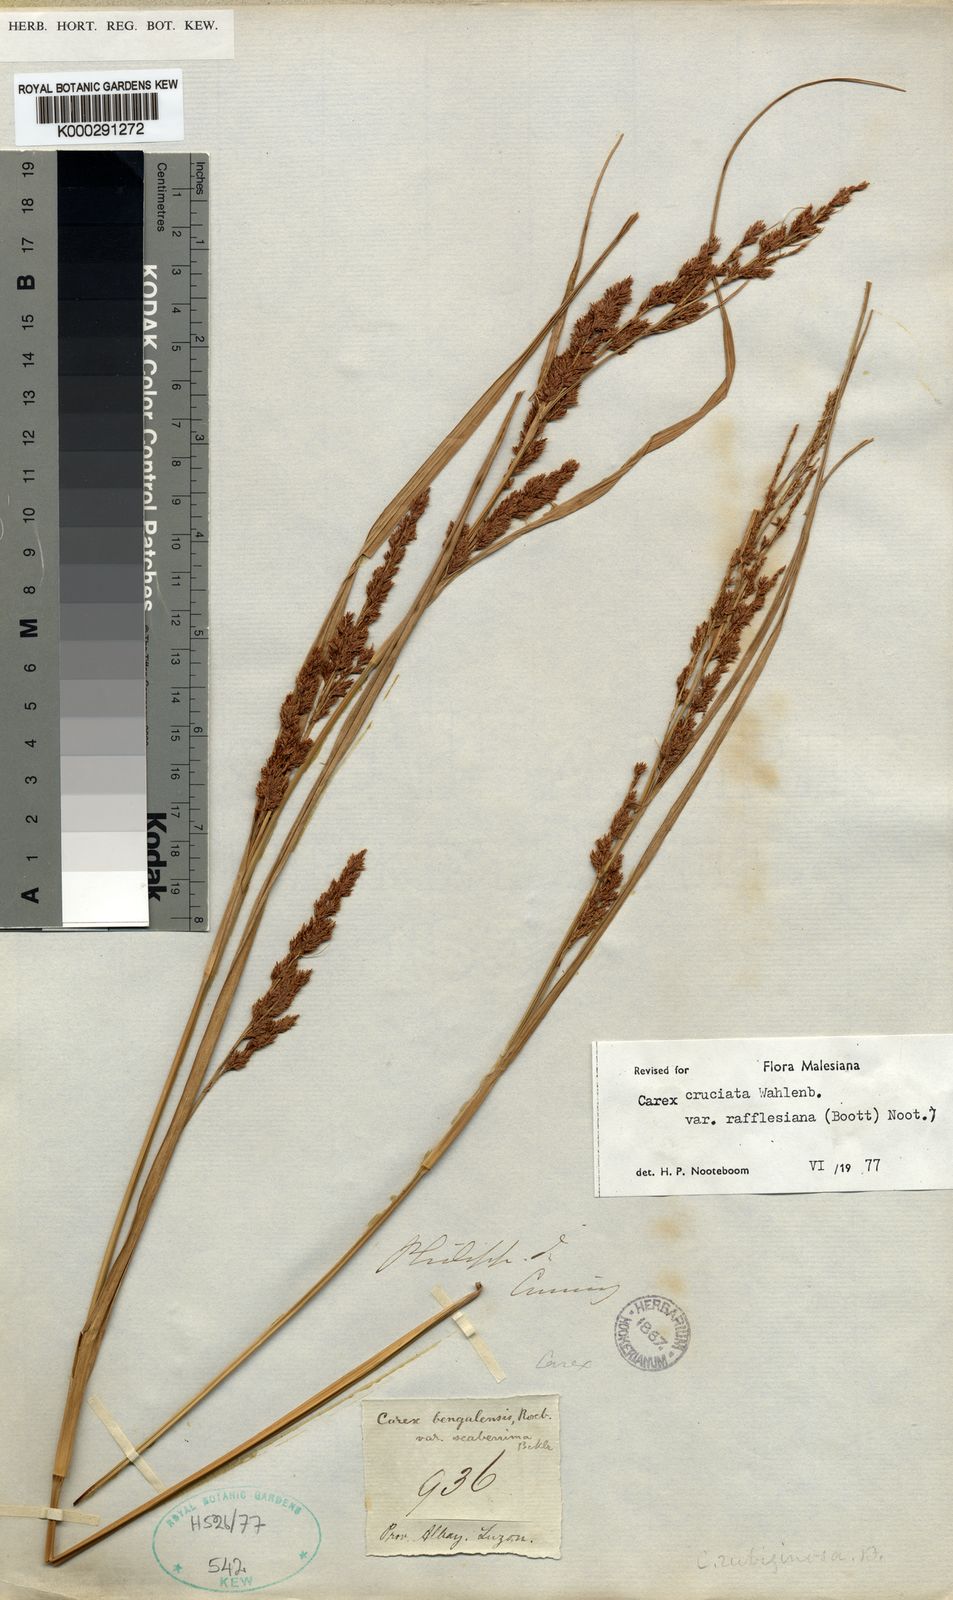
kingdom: Plantae
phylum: Tracheophyta
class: Liliopsida
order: Poales
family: Cyperaceae
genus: Carex
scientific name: Carex rafflesiana
